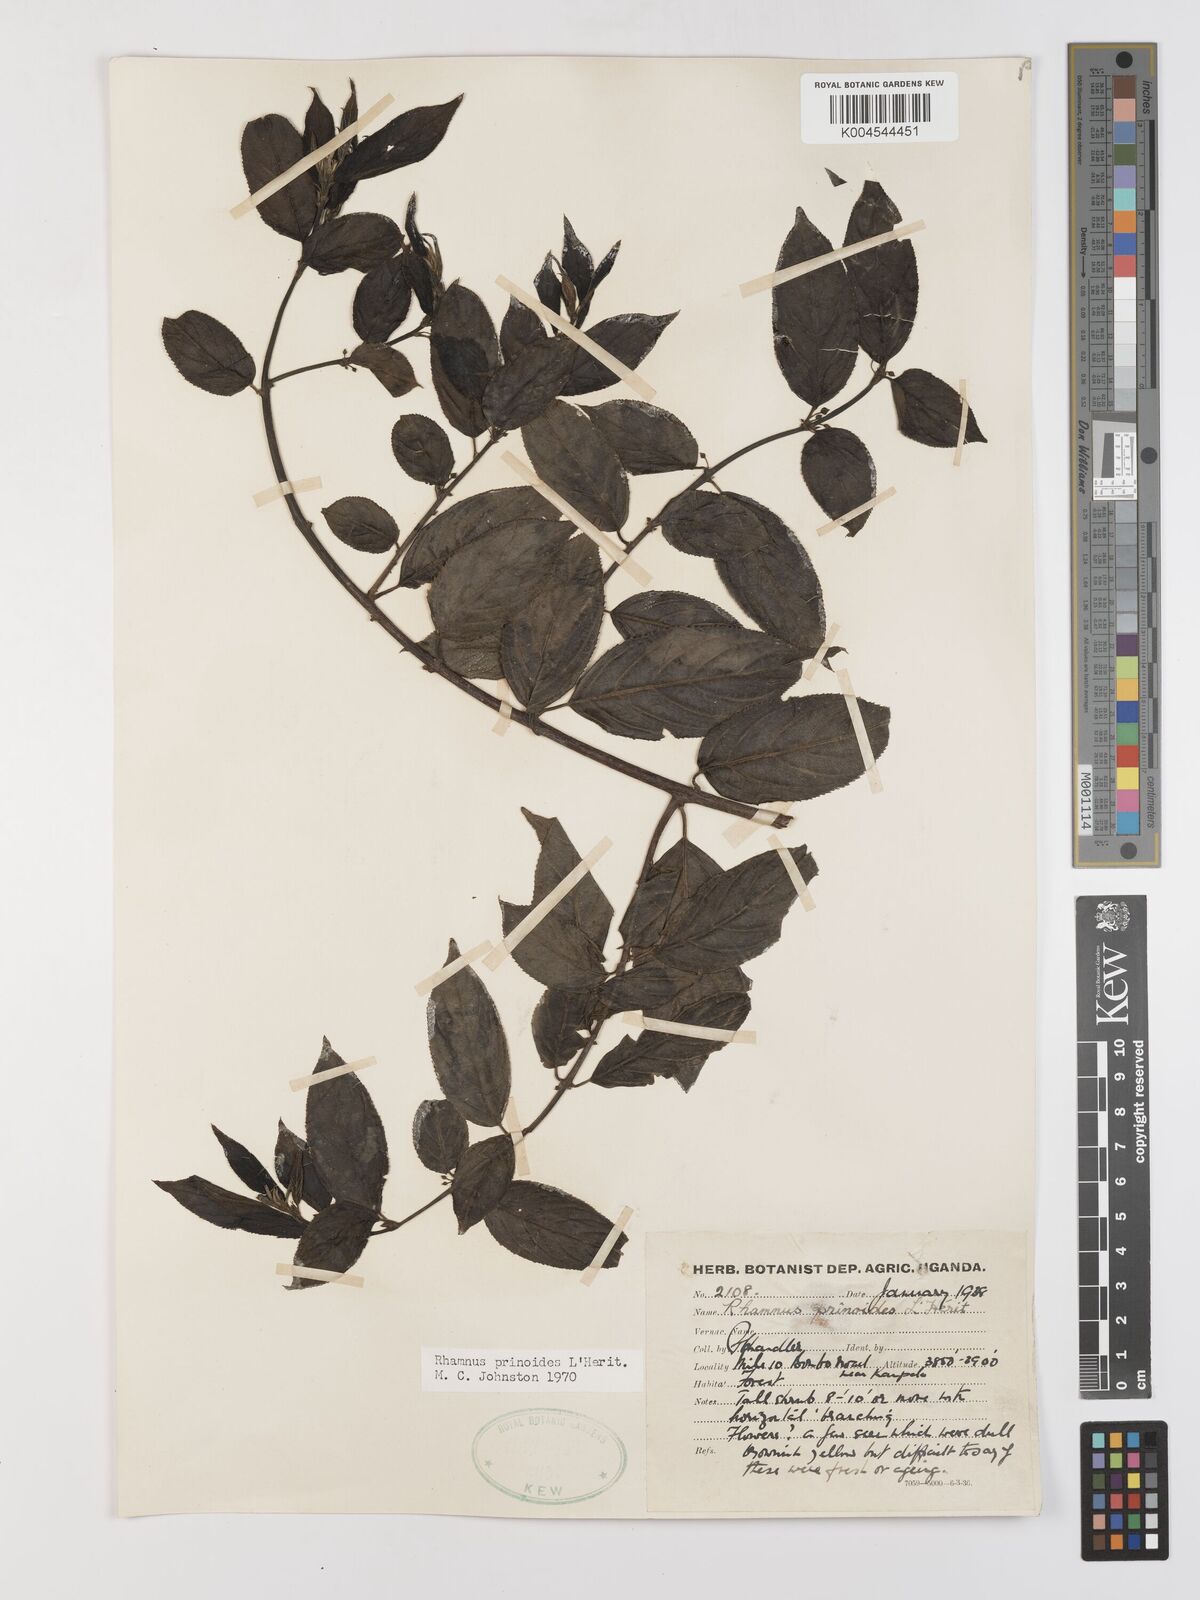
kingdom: Plantae
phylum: Tracheophyta
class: Magnoliopsida
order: Rosales
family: Rhamnaceae
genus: Rhamnus
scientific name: Rhamnus prinoides
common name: Dogwood
